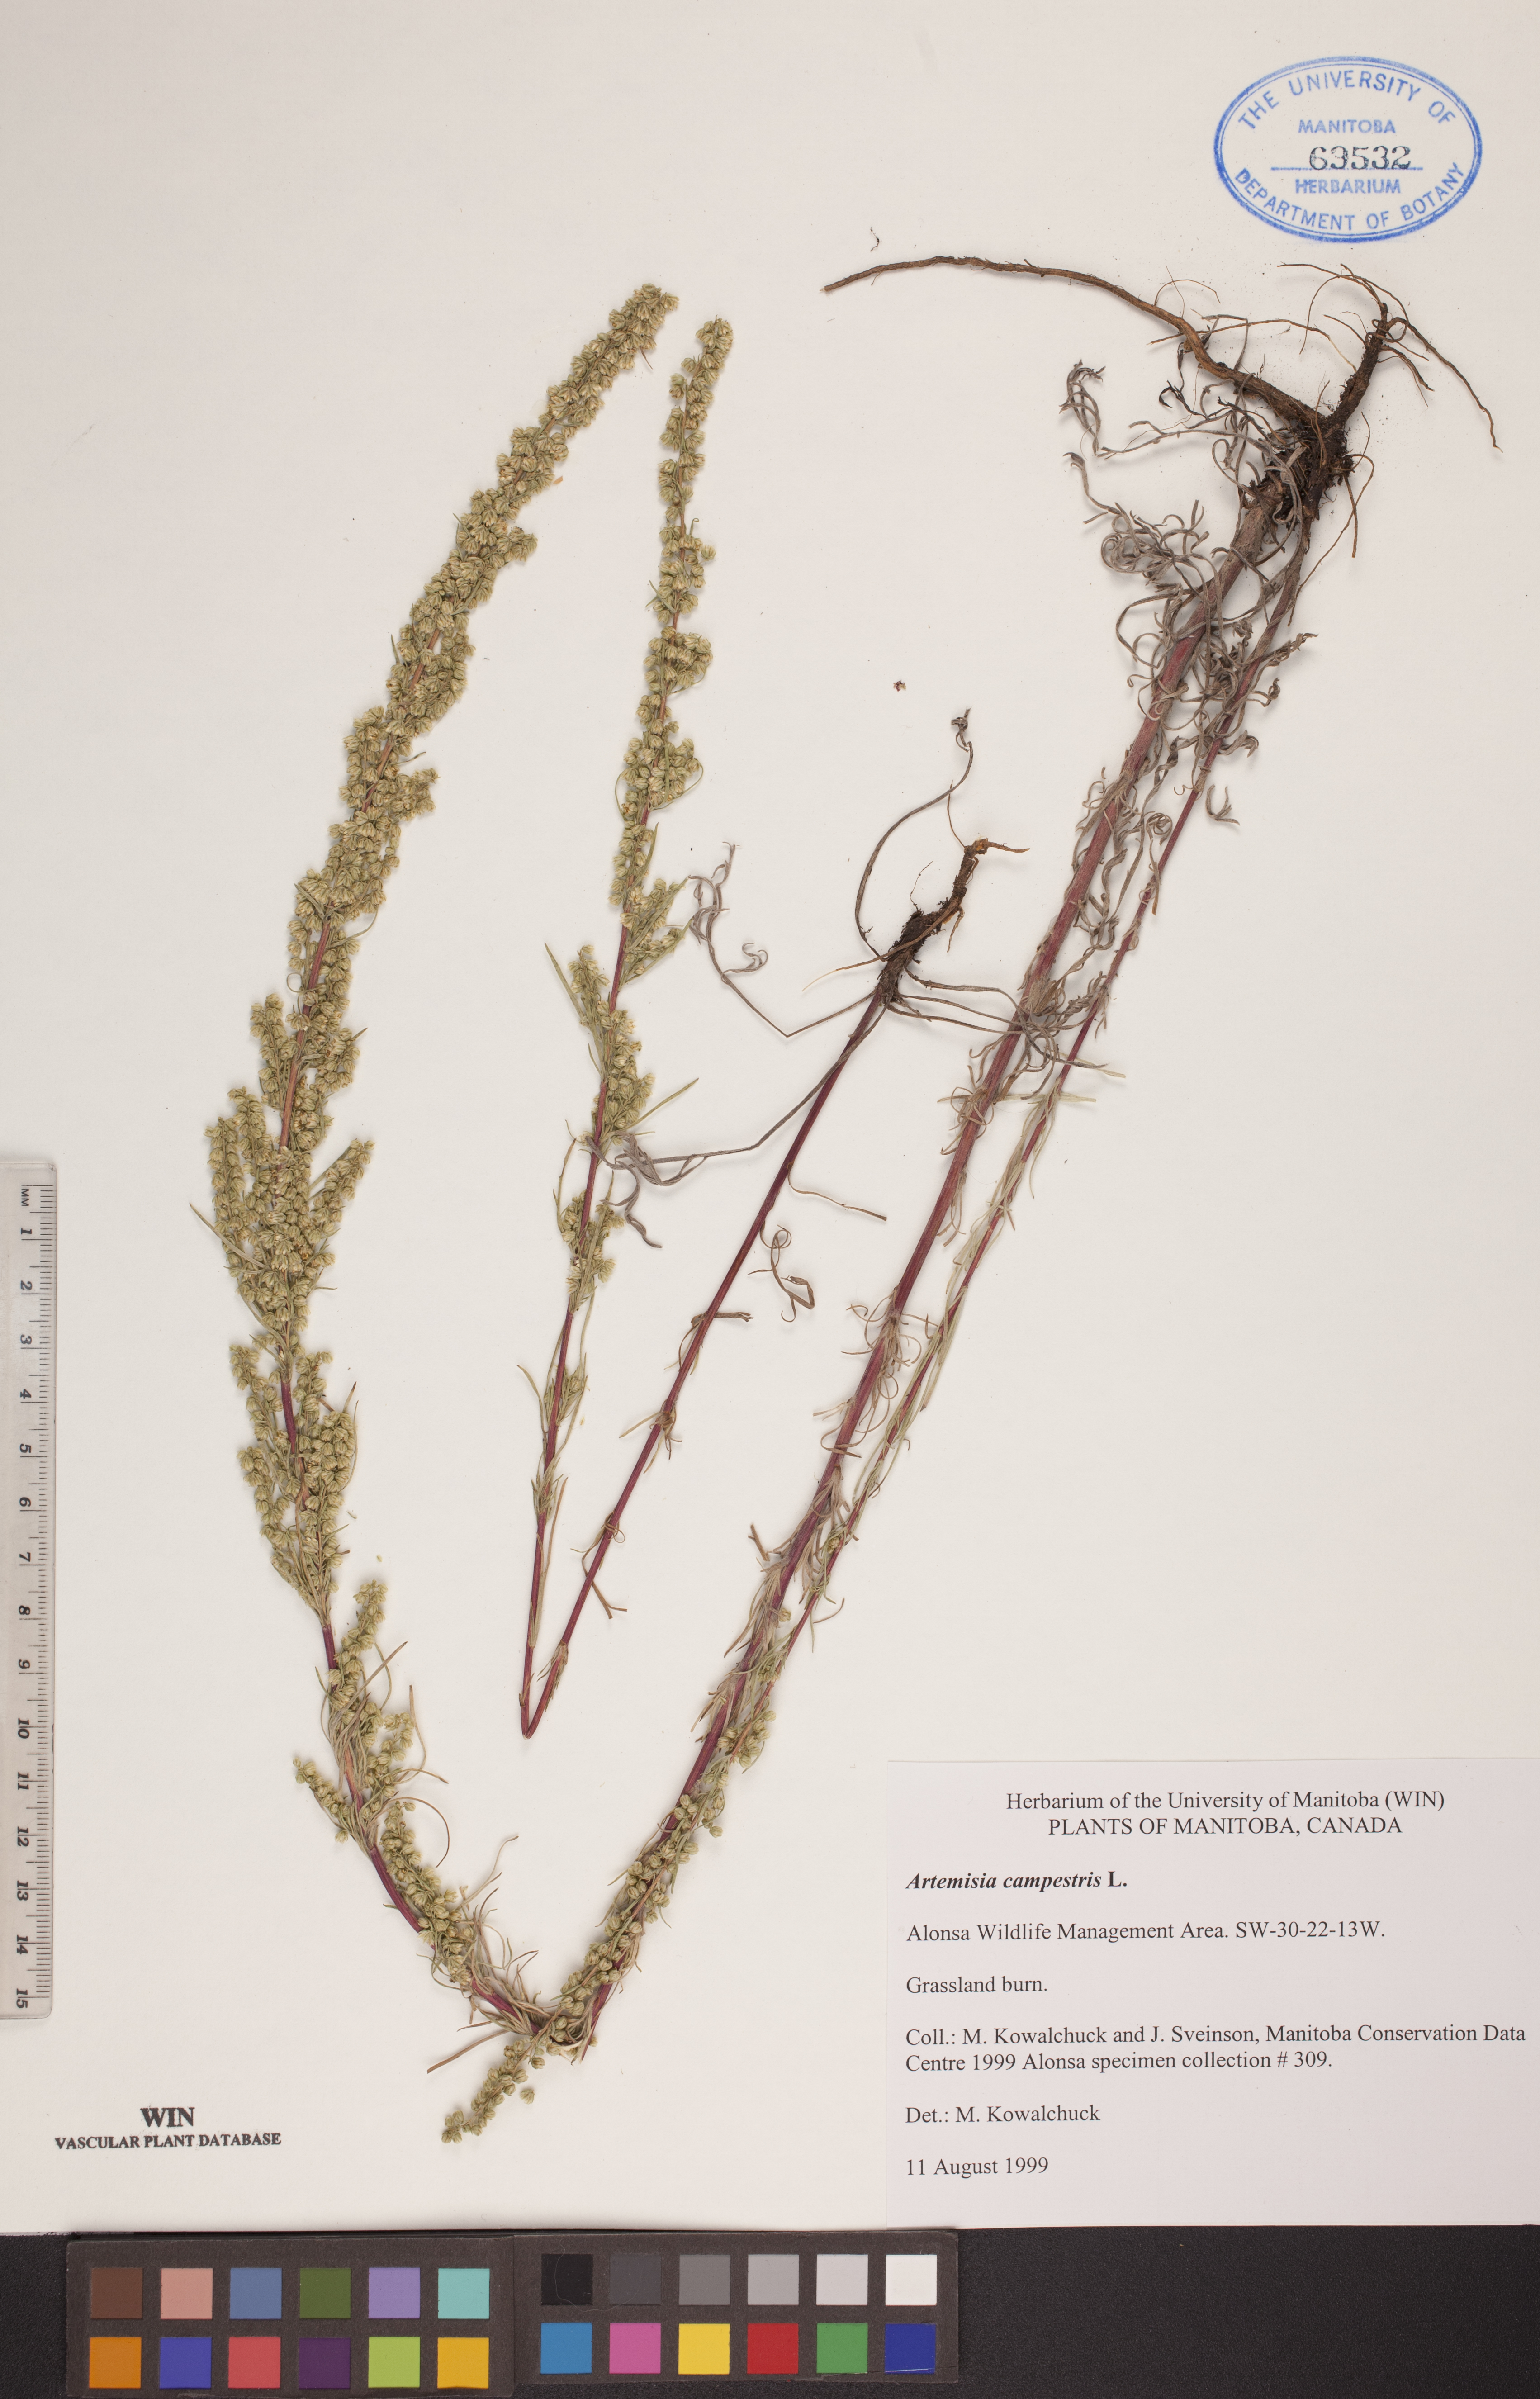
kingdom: Plantae
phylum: Tracheophyta
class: Magnoliopsida
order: Asterales
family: Asteraceae
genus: Artemisia
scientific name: Artemisia campestris
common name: Field wormwood
